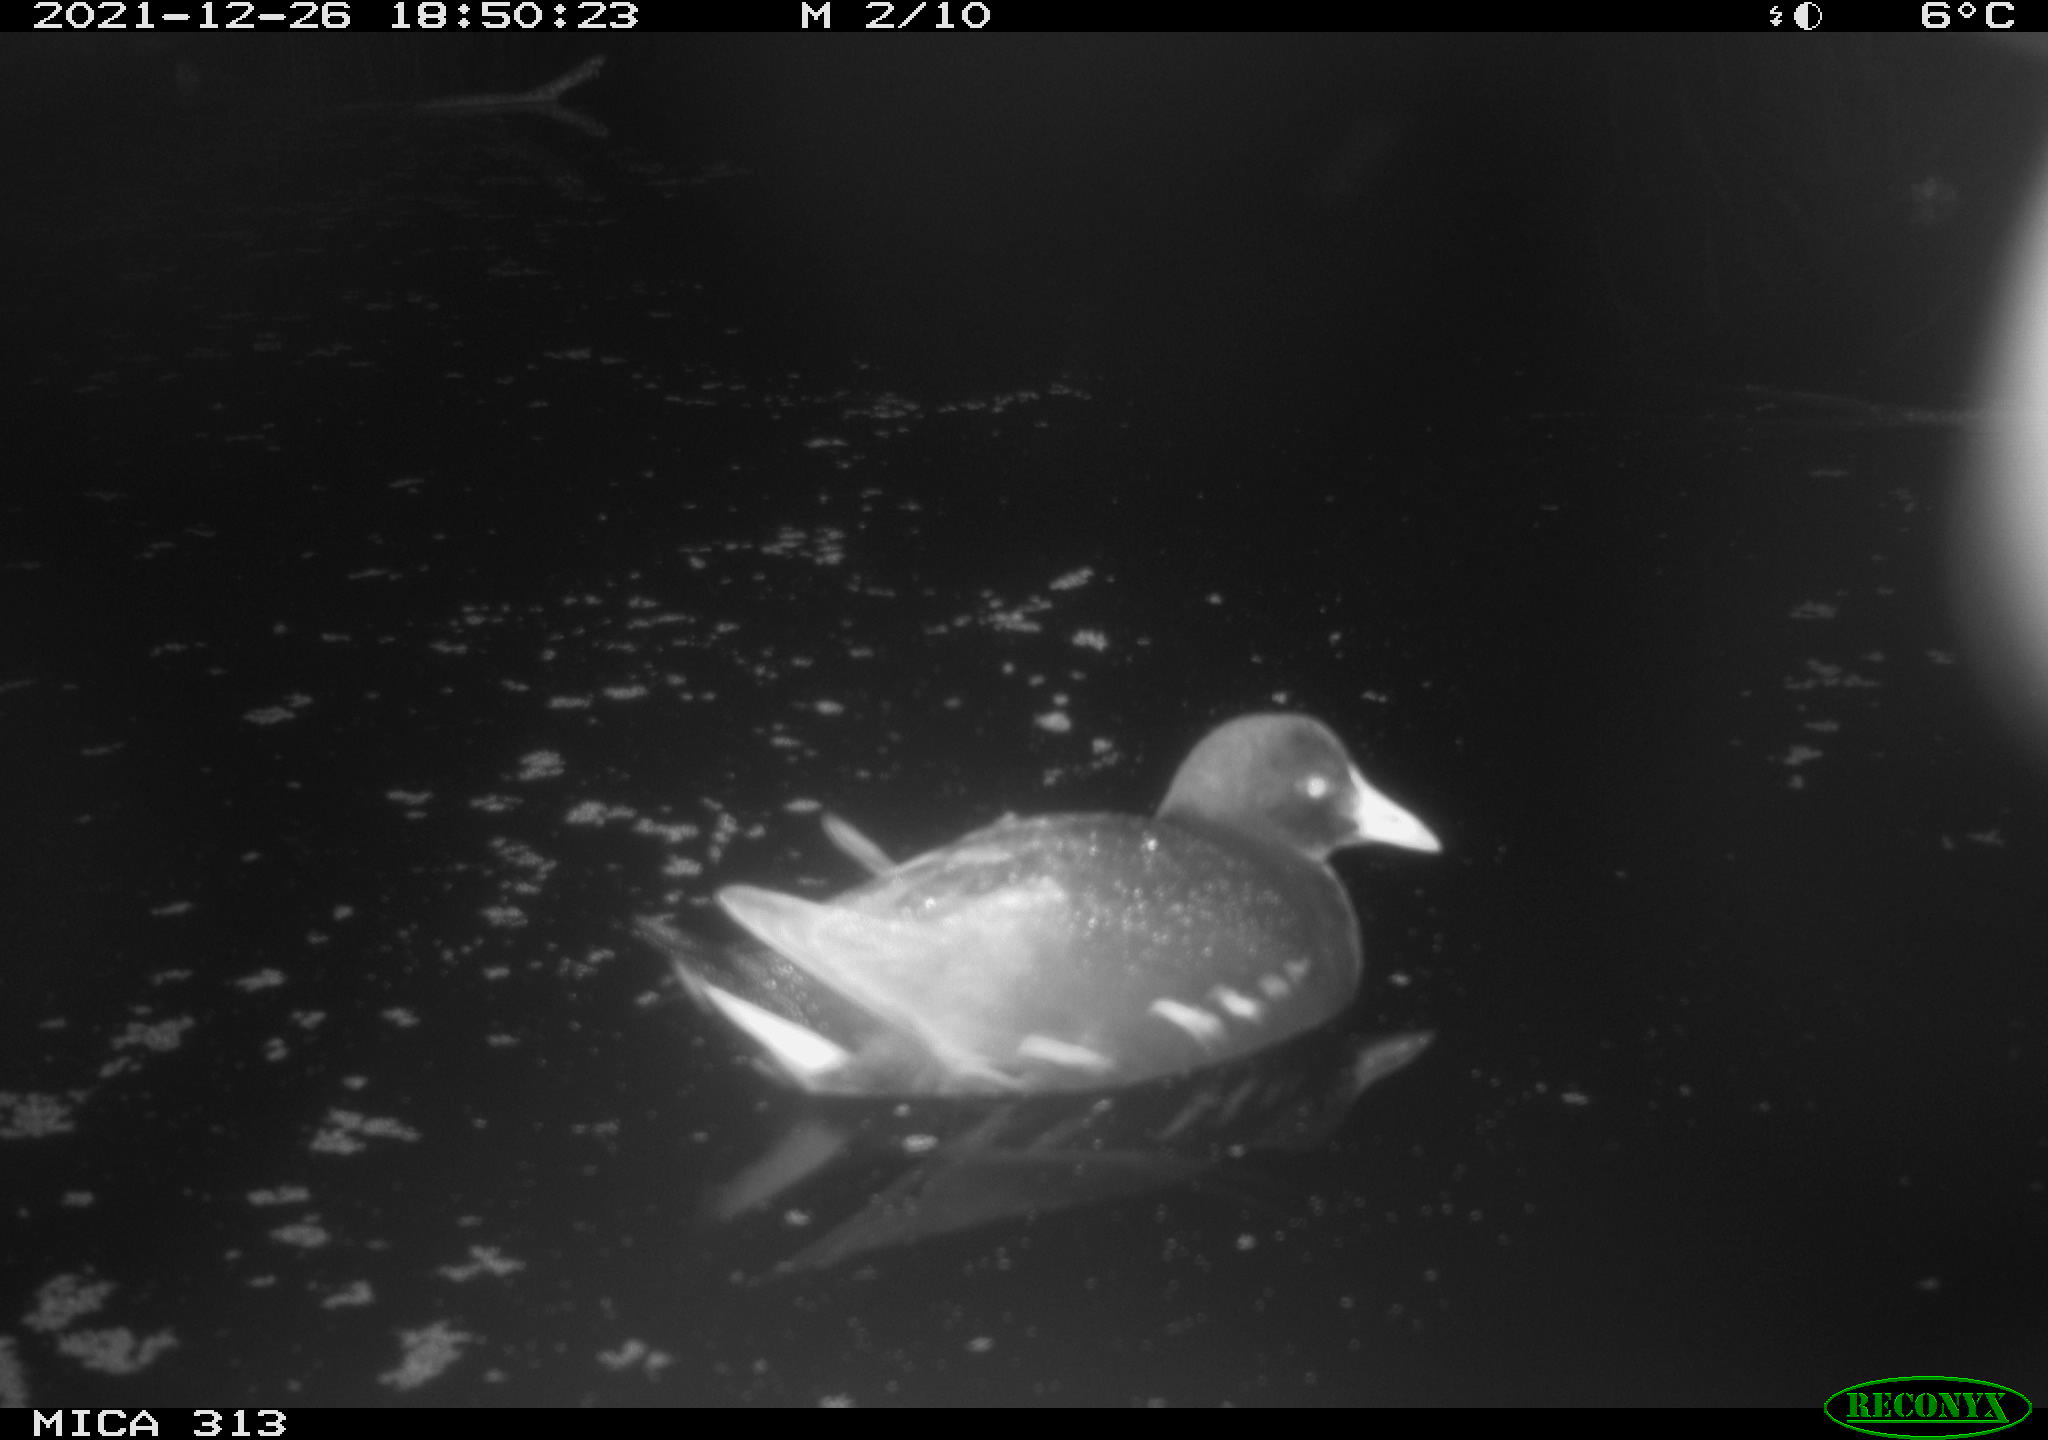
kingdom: Animalia
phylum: Chordata
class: Aves
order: Gruiformes
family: Rallidae
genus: Gallinula
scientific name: Gallinula chloropus
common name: Common moorhen
